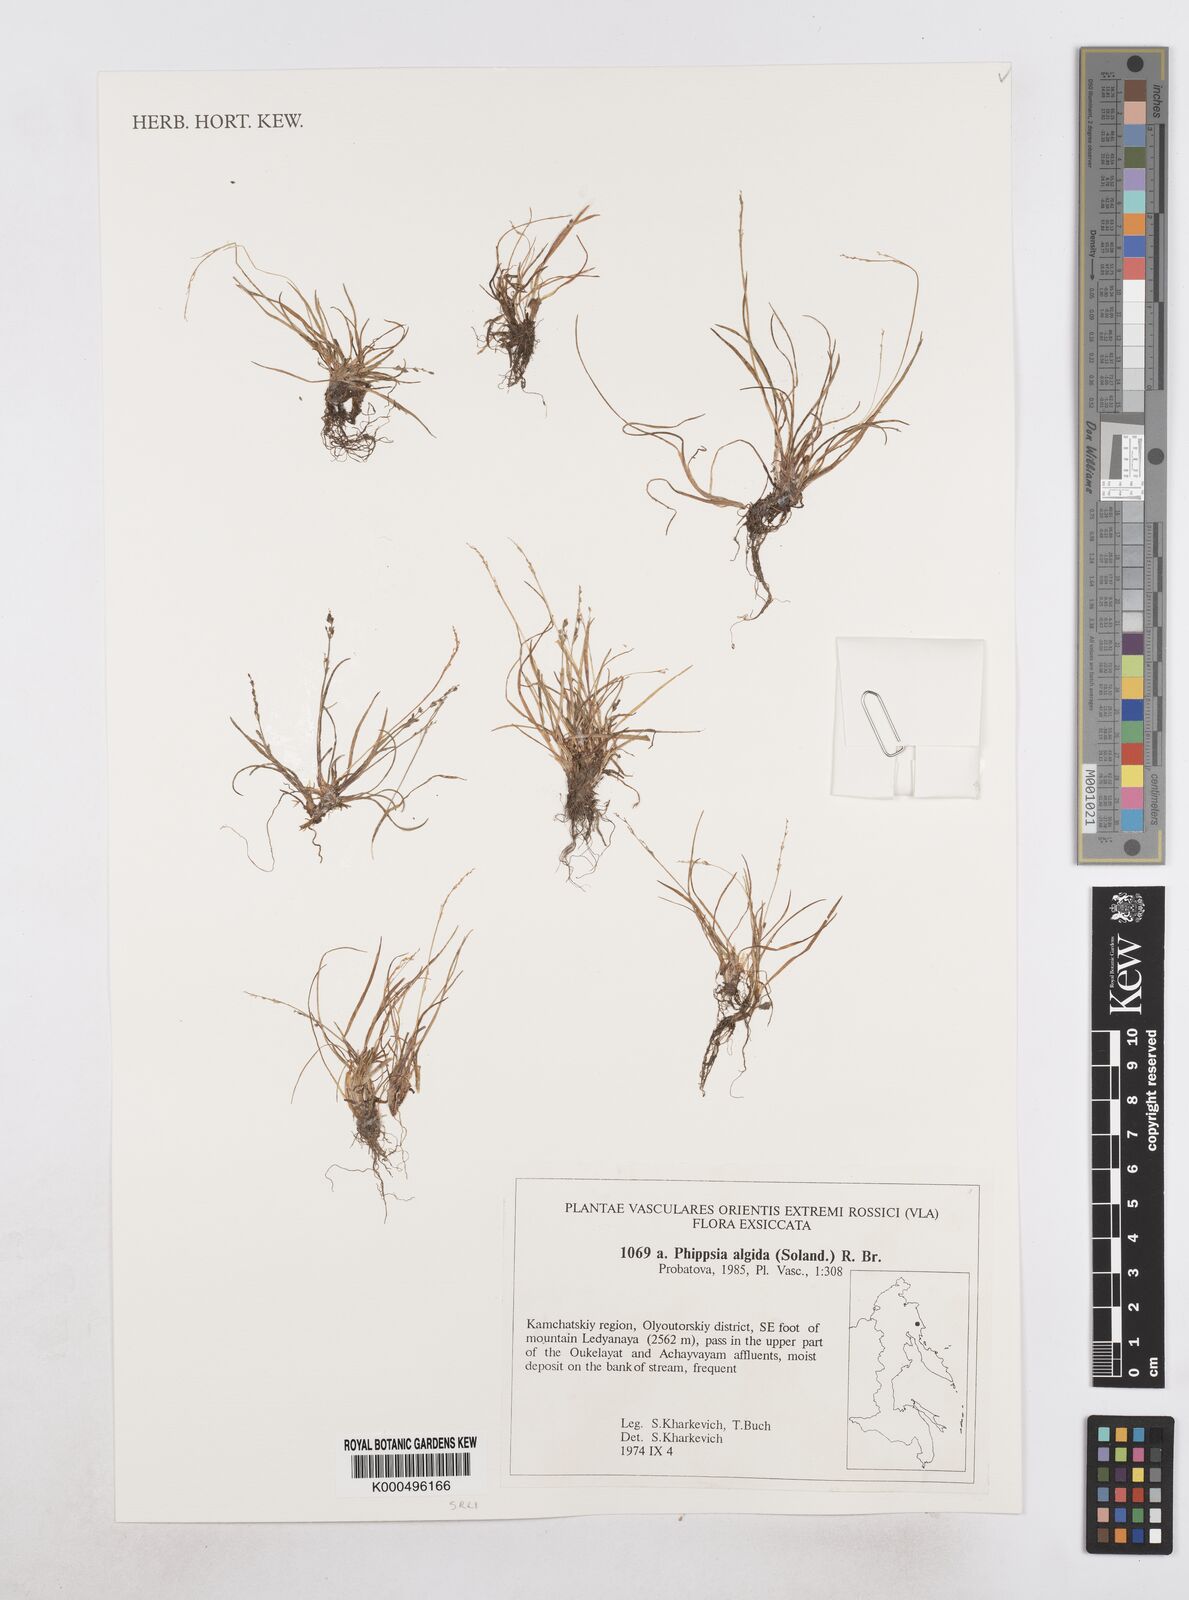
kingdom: Plantae
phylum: Tracheophyta
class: Liliopsida
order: Poales
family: Poaceae
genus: Phippsia
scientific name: Phippsia algida
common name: Ice grass
